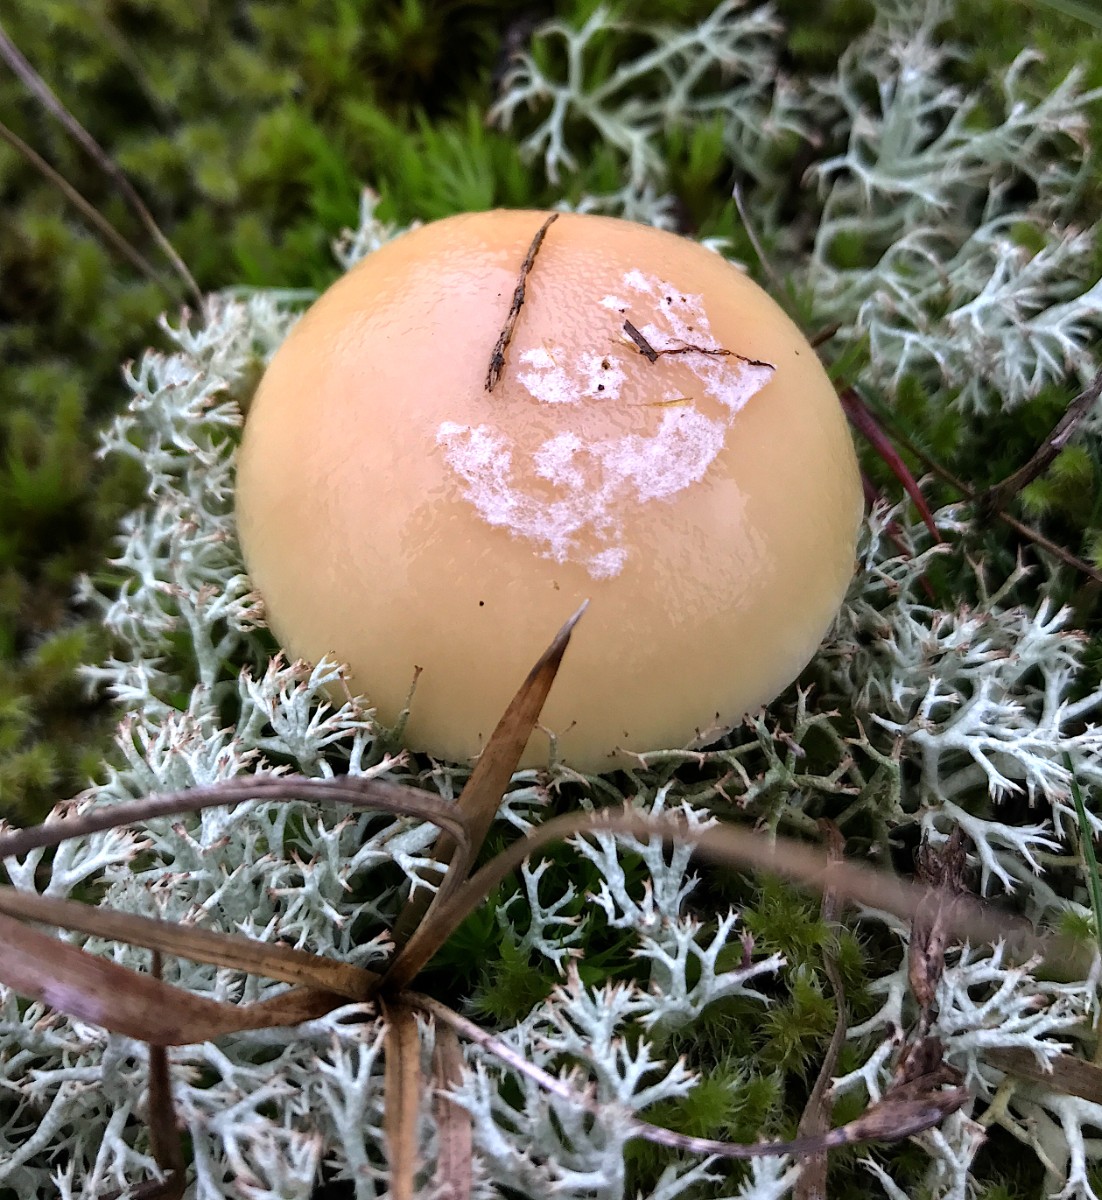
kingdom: Fungi
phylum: Basidiomycota
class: Agaricomycetes
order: Agaricales
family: Amanitaceae
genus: Amanita
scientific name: Amanita gemmata
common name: okkergul fluesvamp
